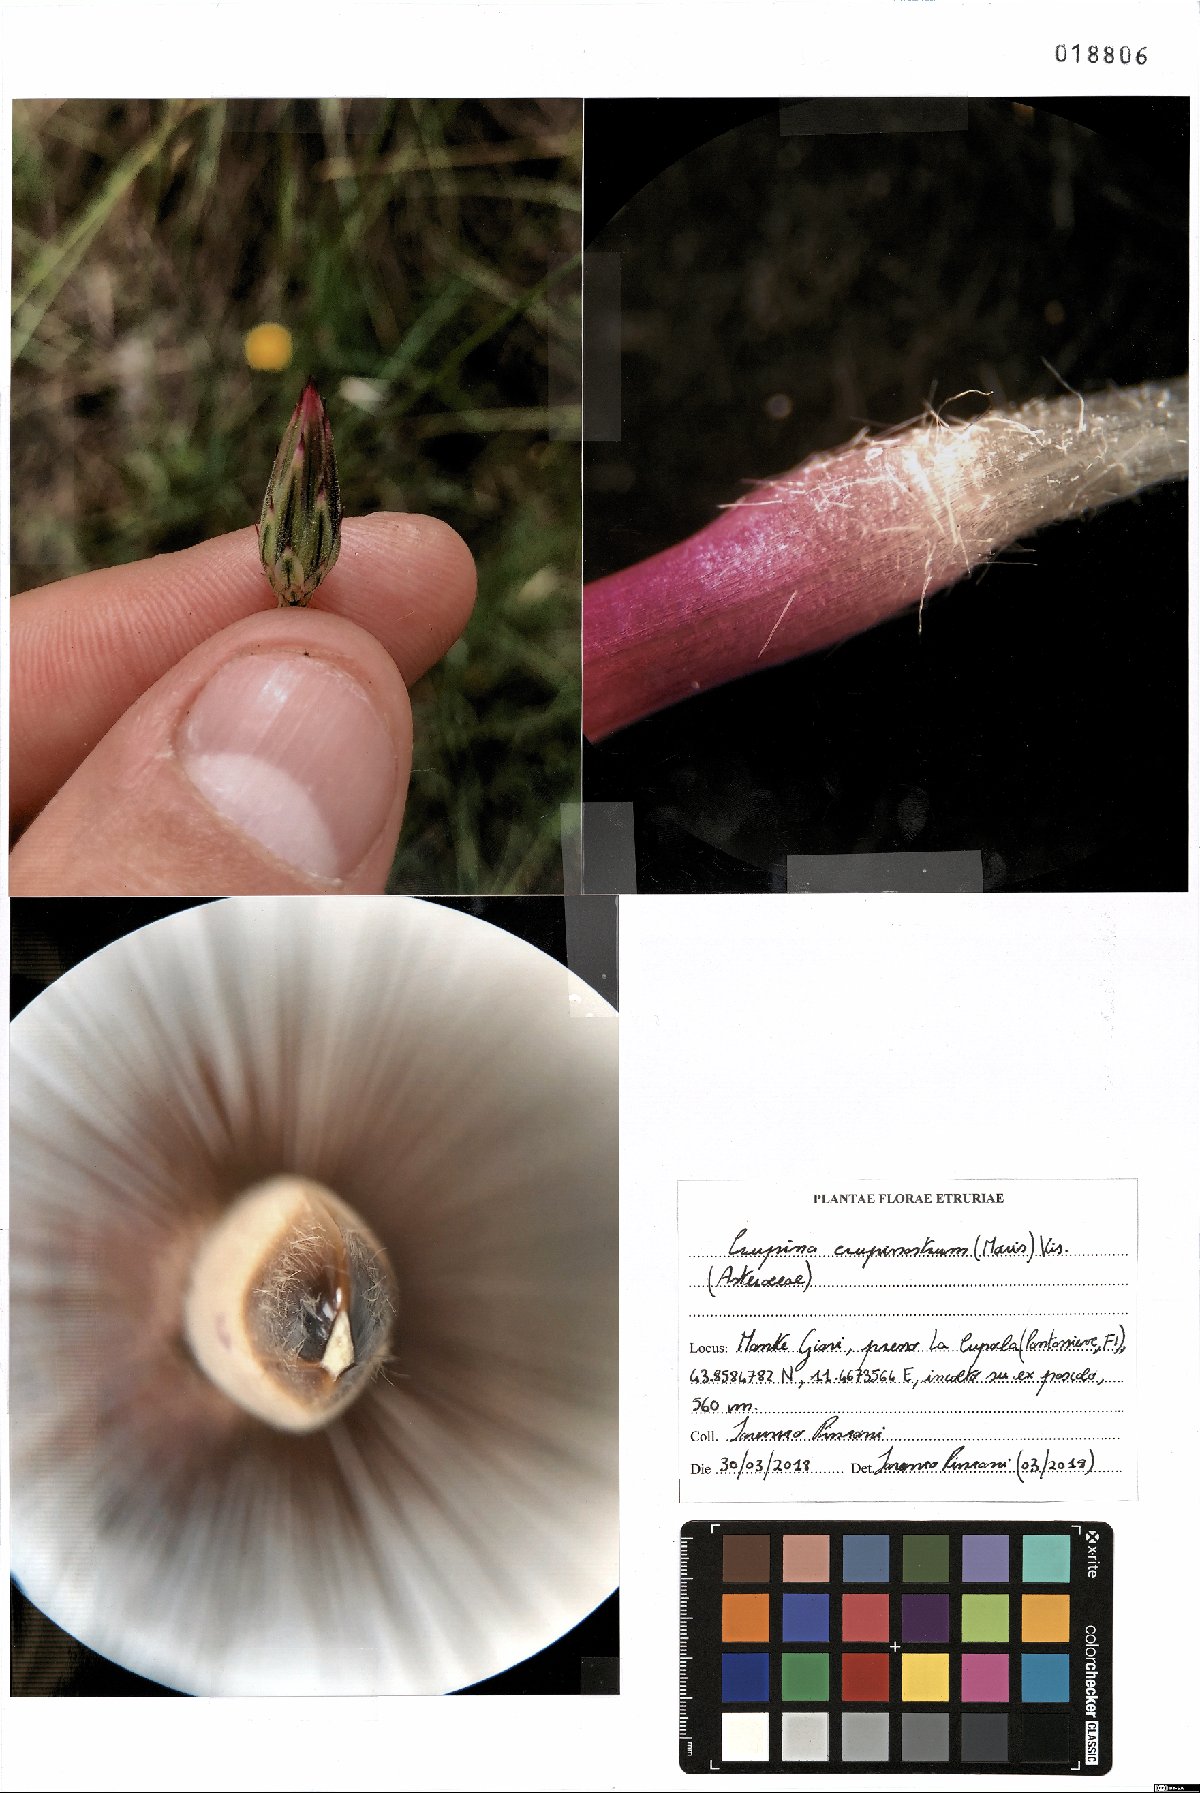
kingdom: Plantae
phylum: Tracheophyta
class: Magnoliopsida
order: Asterales
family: Asteraceae
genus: Crupina
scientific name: Crupina crupinastrum
